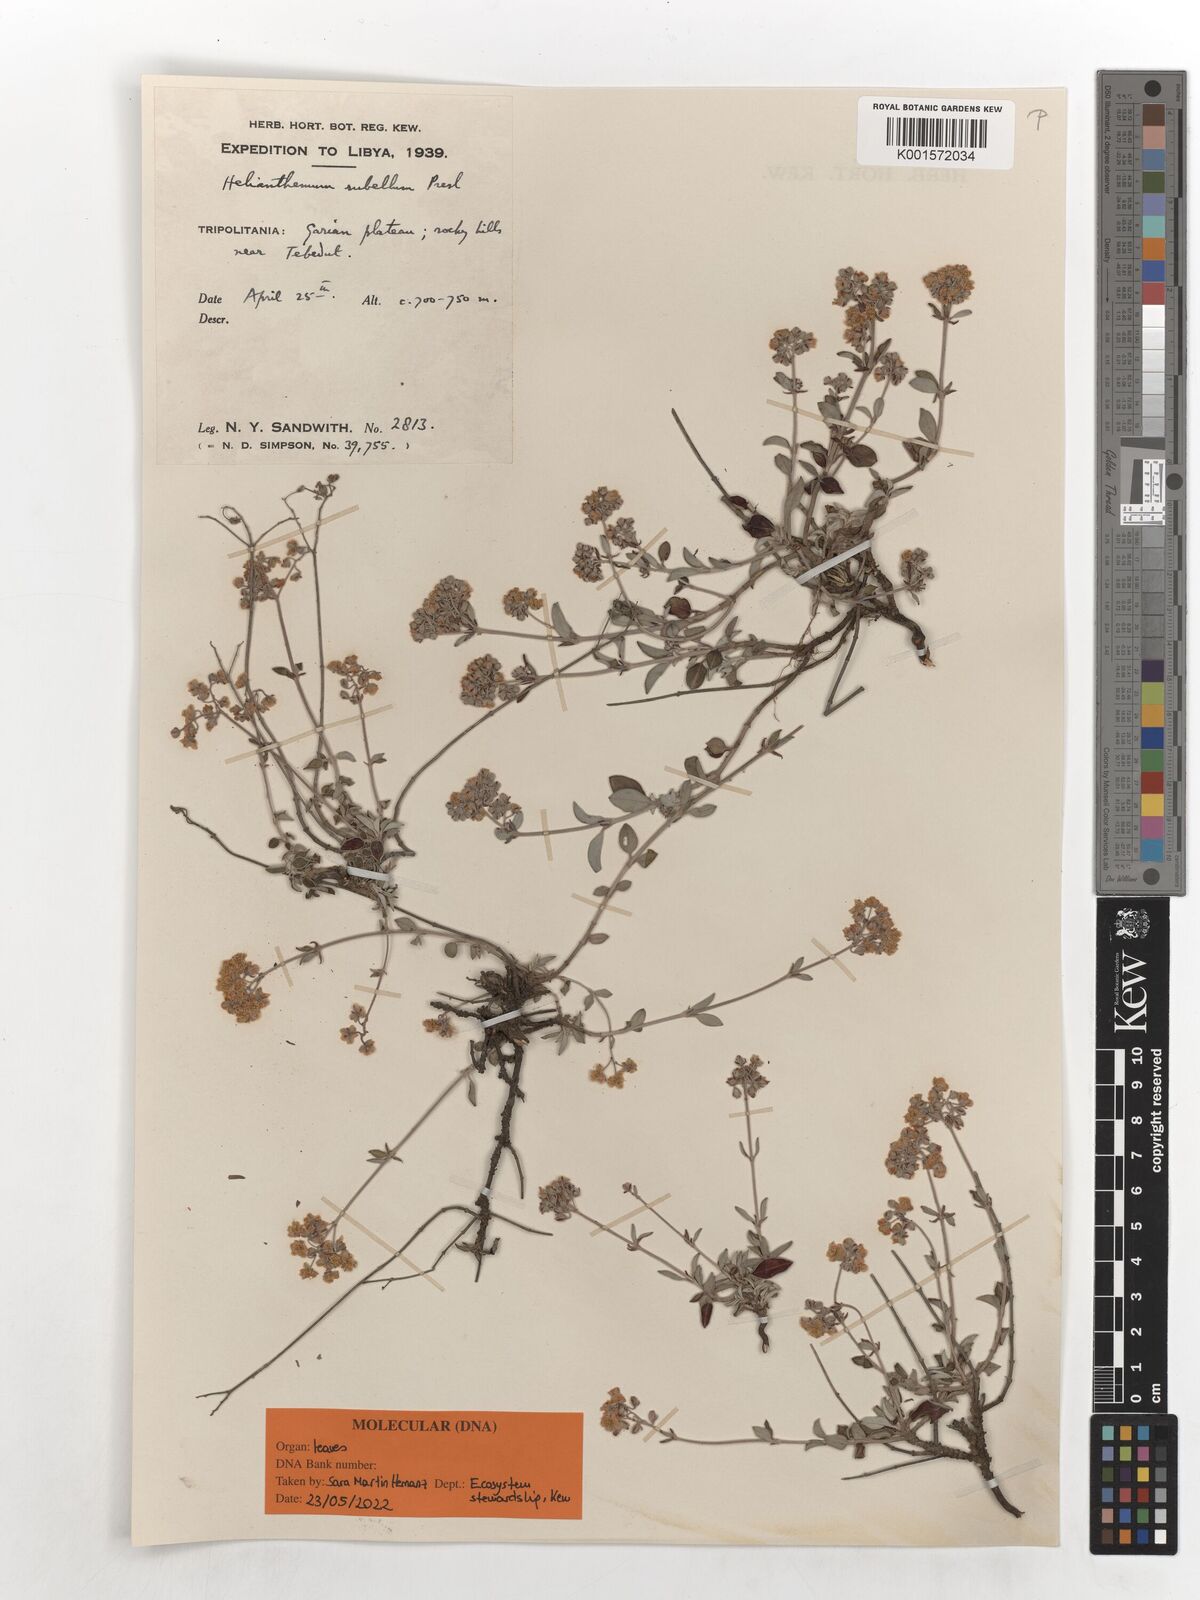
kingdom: Plantae
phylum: Tracheophyta
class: Magnoliopsida
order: Malvales
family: Cistaceae
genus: Helianthemum
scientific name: Helianthemum cinereum
